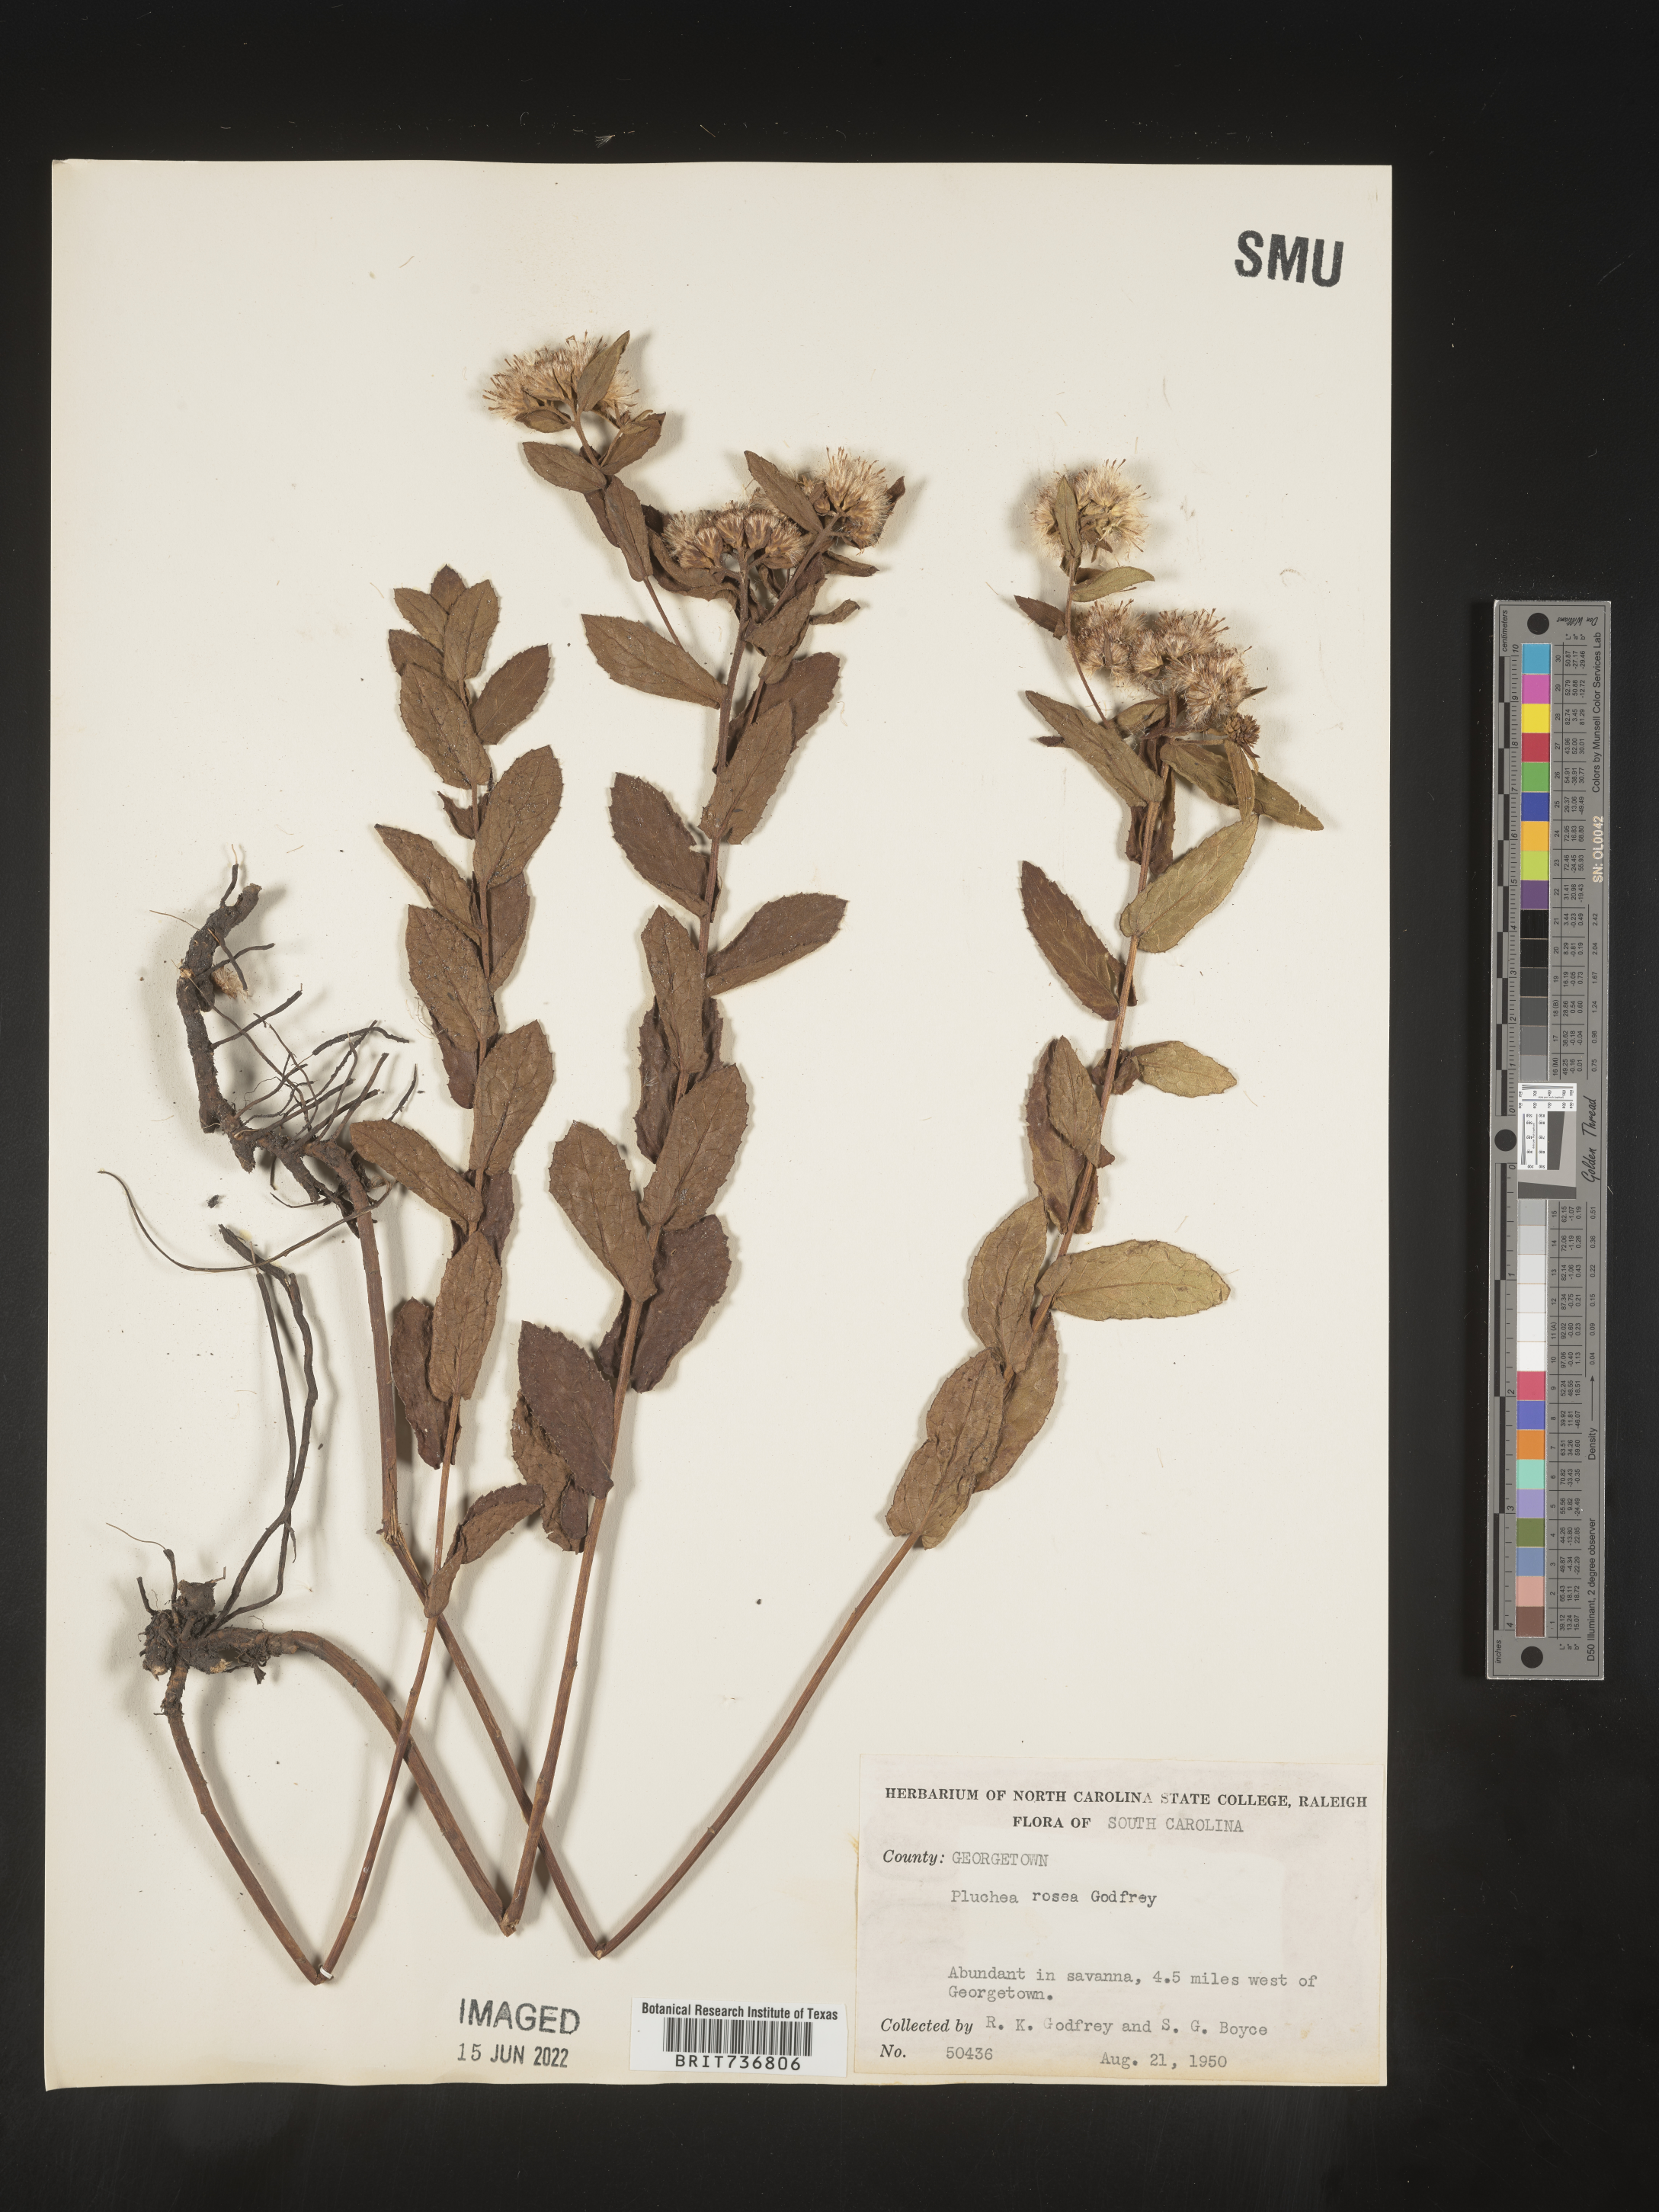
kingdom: Plantae
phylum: Tracheophyta
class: Magnoliopsida
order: Asterales
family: Asteraceae
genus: Pluchea
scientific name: Pluchea baccharis
